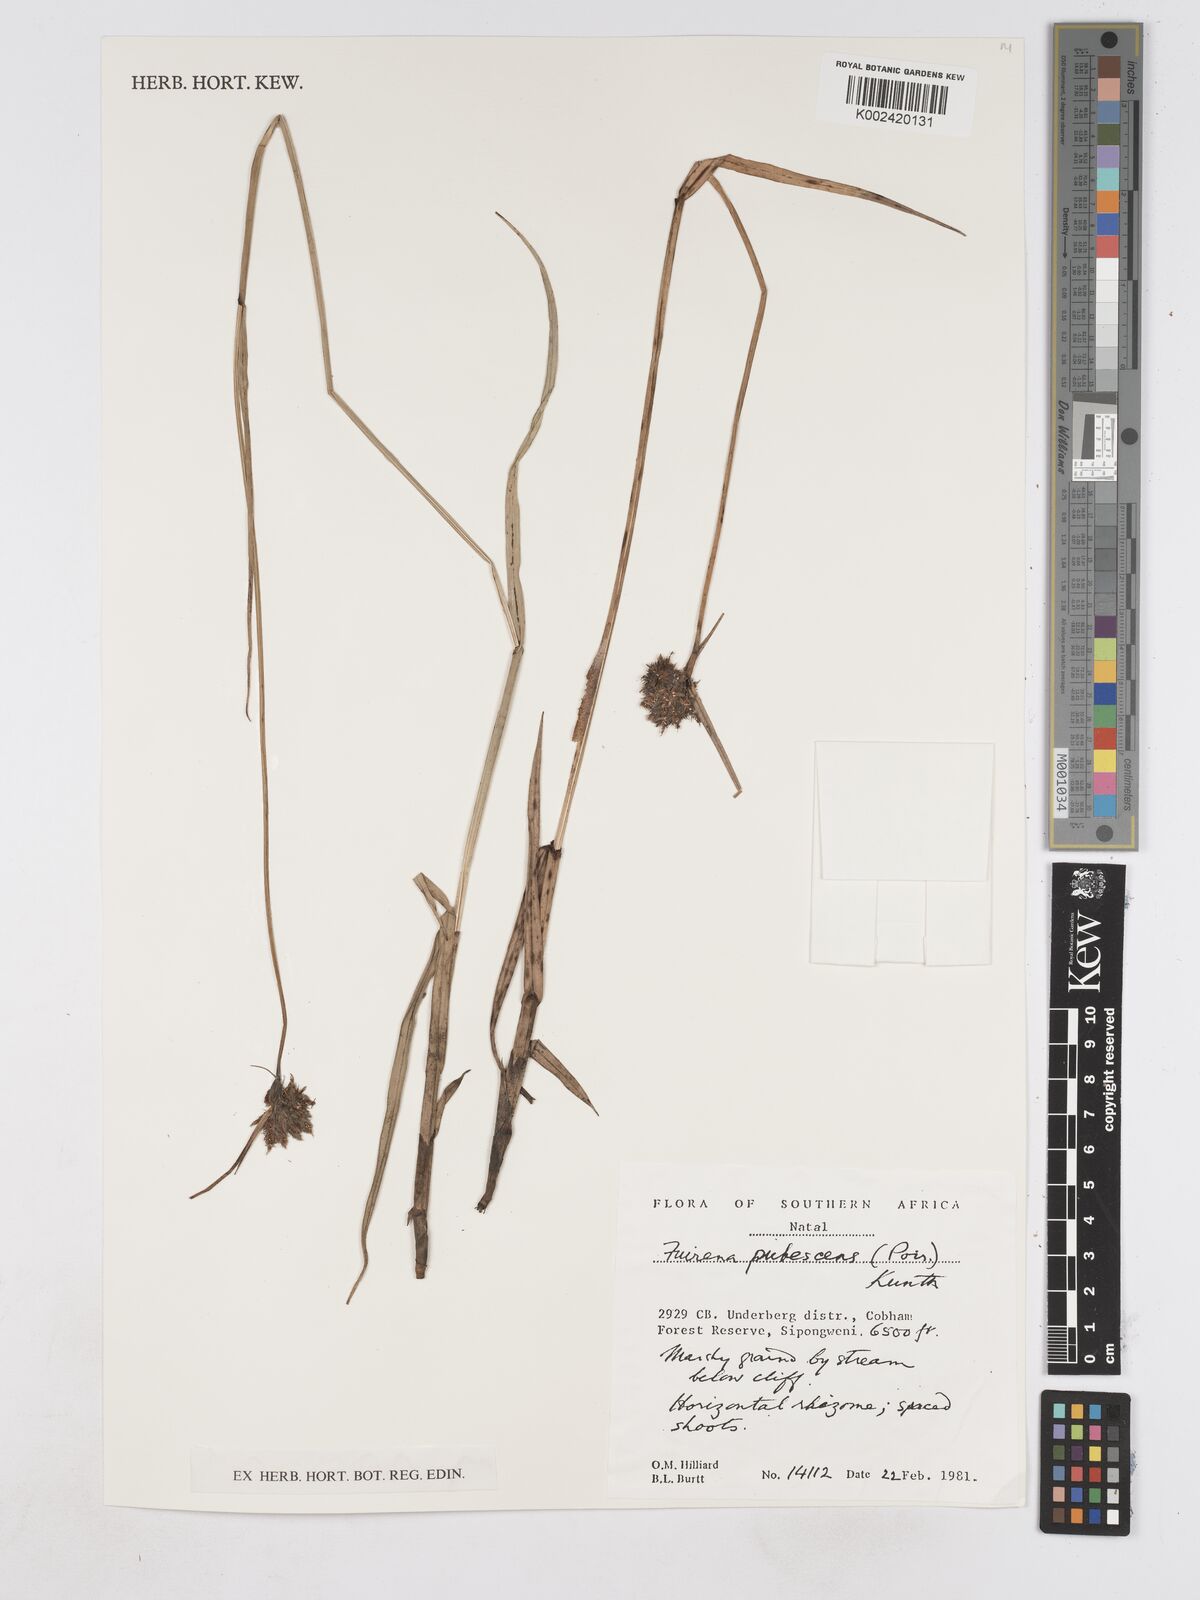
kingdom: Plantae
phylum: Tracheophyta
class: Liliopsida
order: Poales
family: Cyperaceae
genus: Fuirena
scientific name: Fuirena pubescens
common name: Hairy sedge
